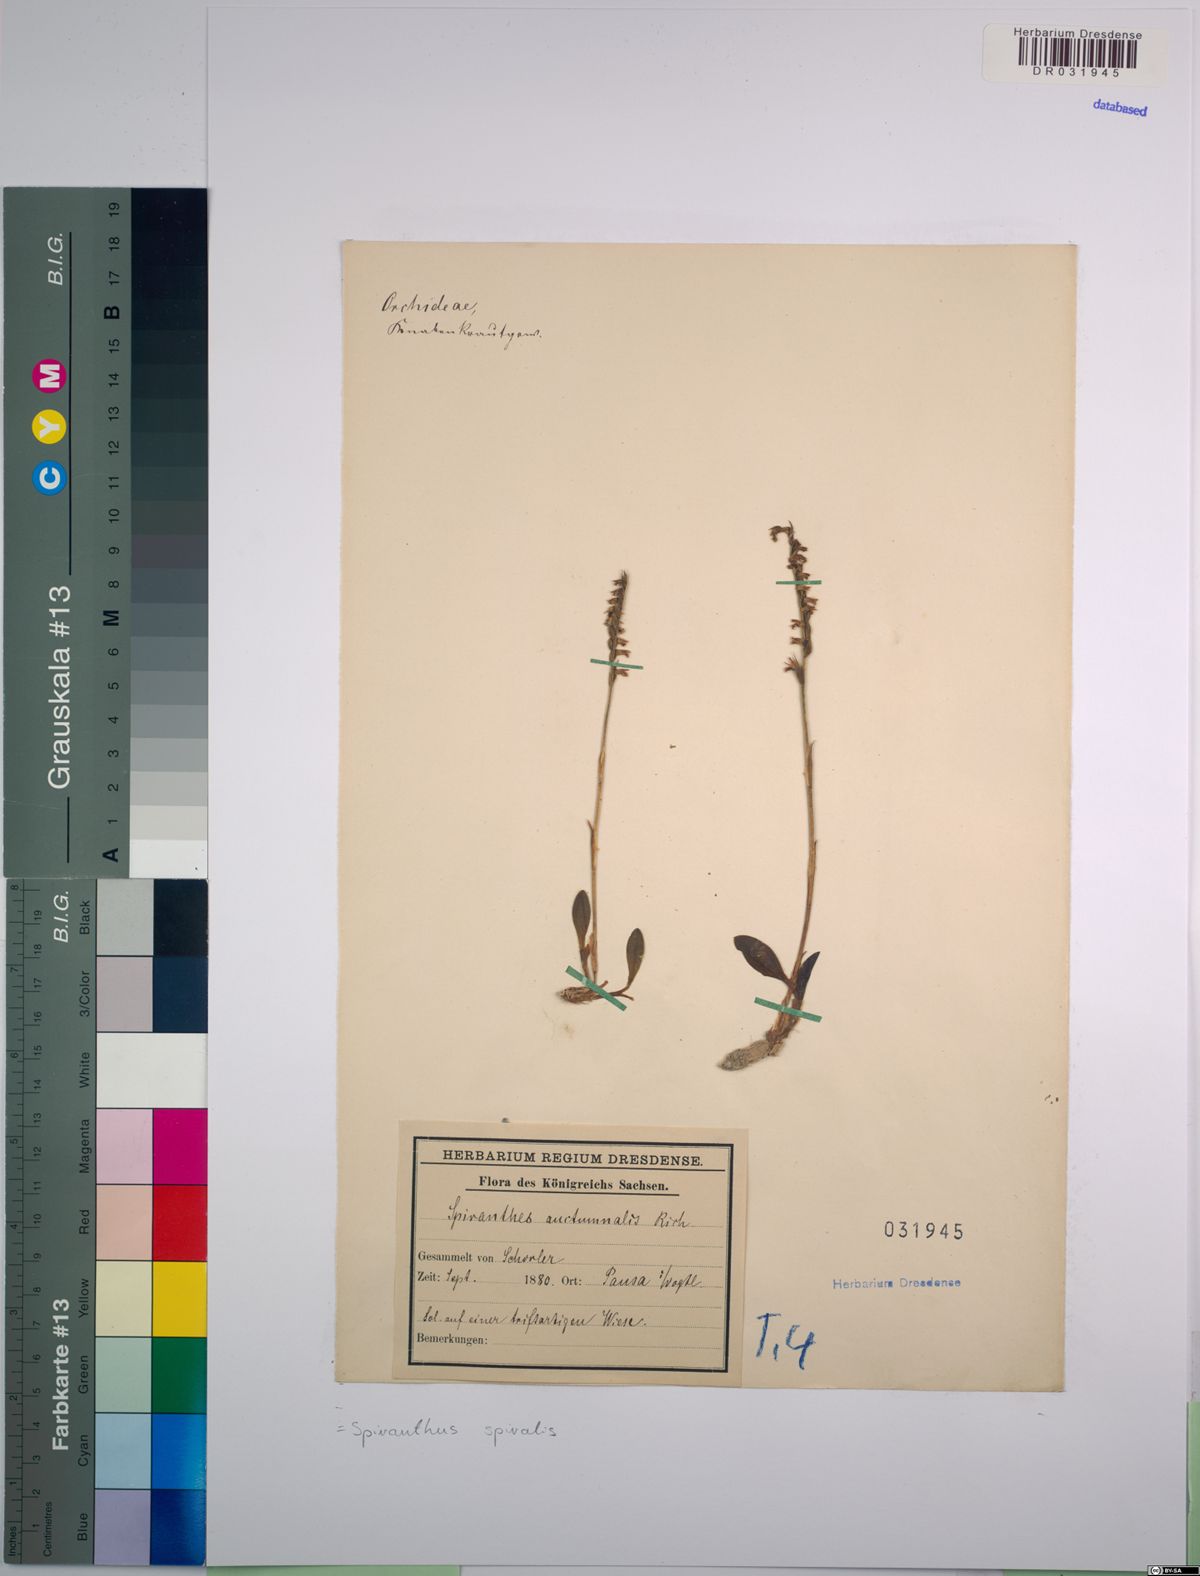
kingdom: Plantae
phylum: Tracheophyta
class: Liliopsida
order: Asparagales
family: Orchidaceae
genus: Spiranthes
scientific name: Spiranthes spiralis
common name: Autumn lady's-tresses
